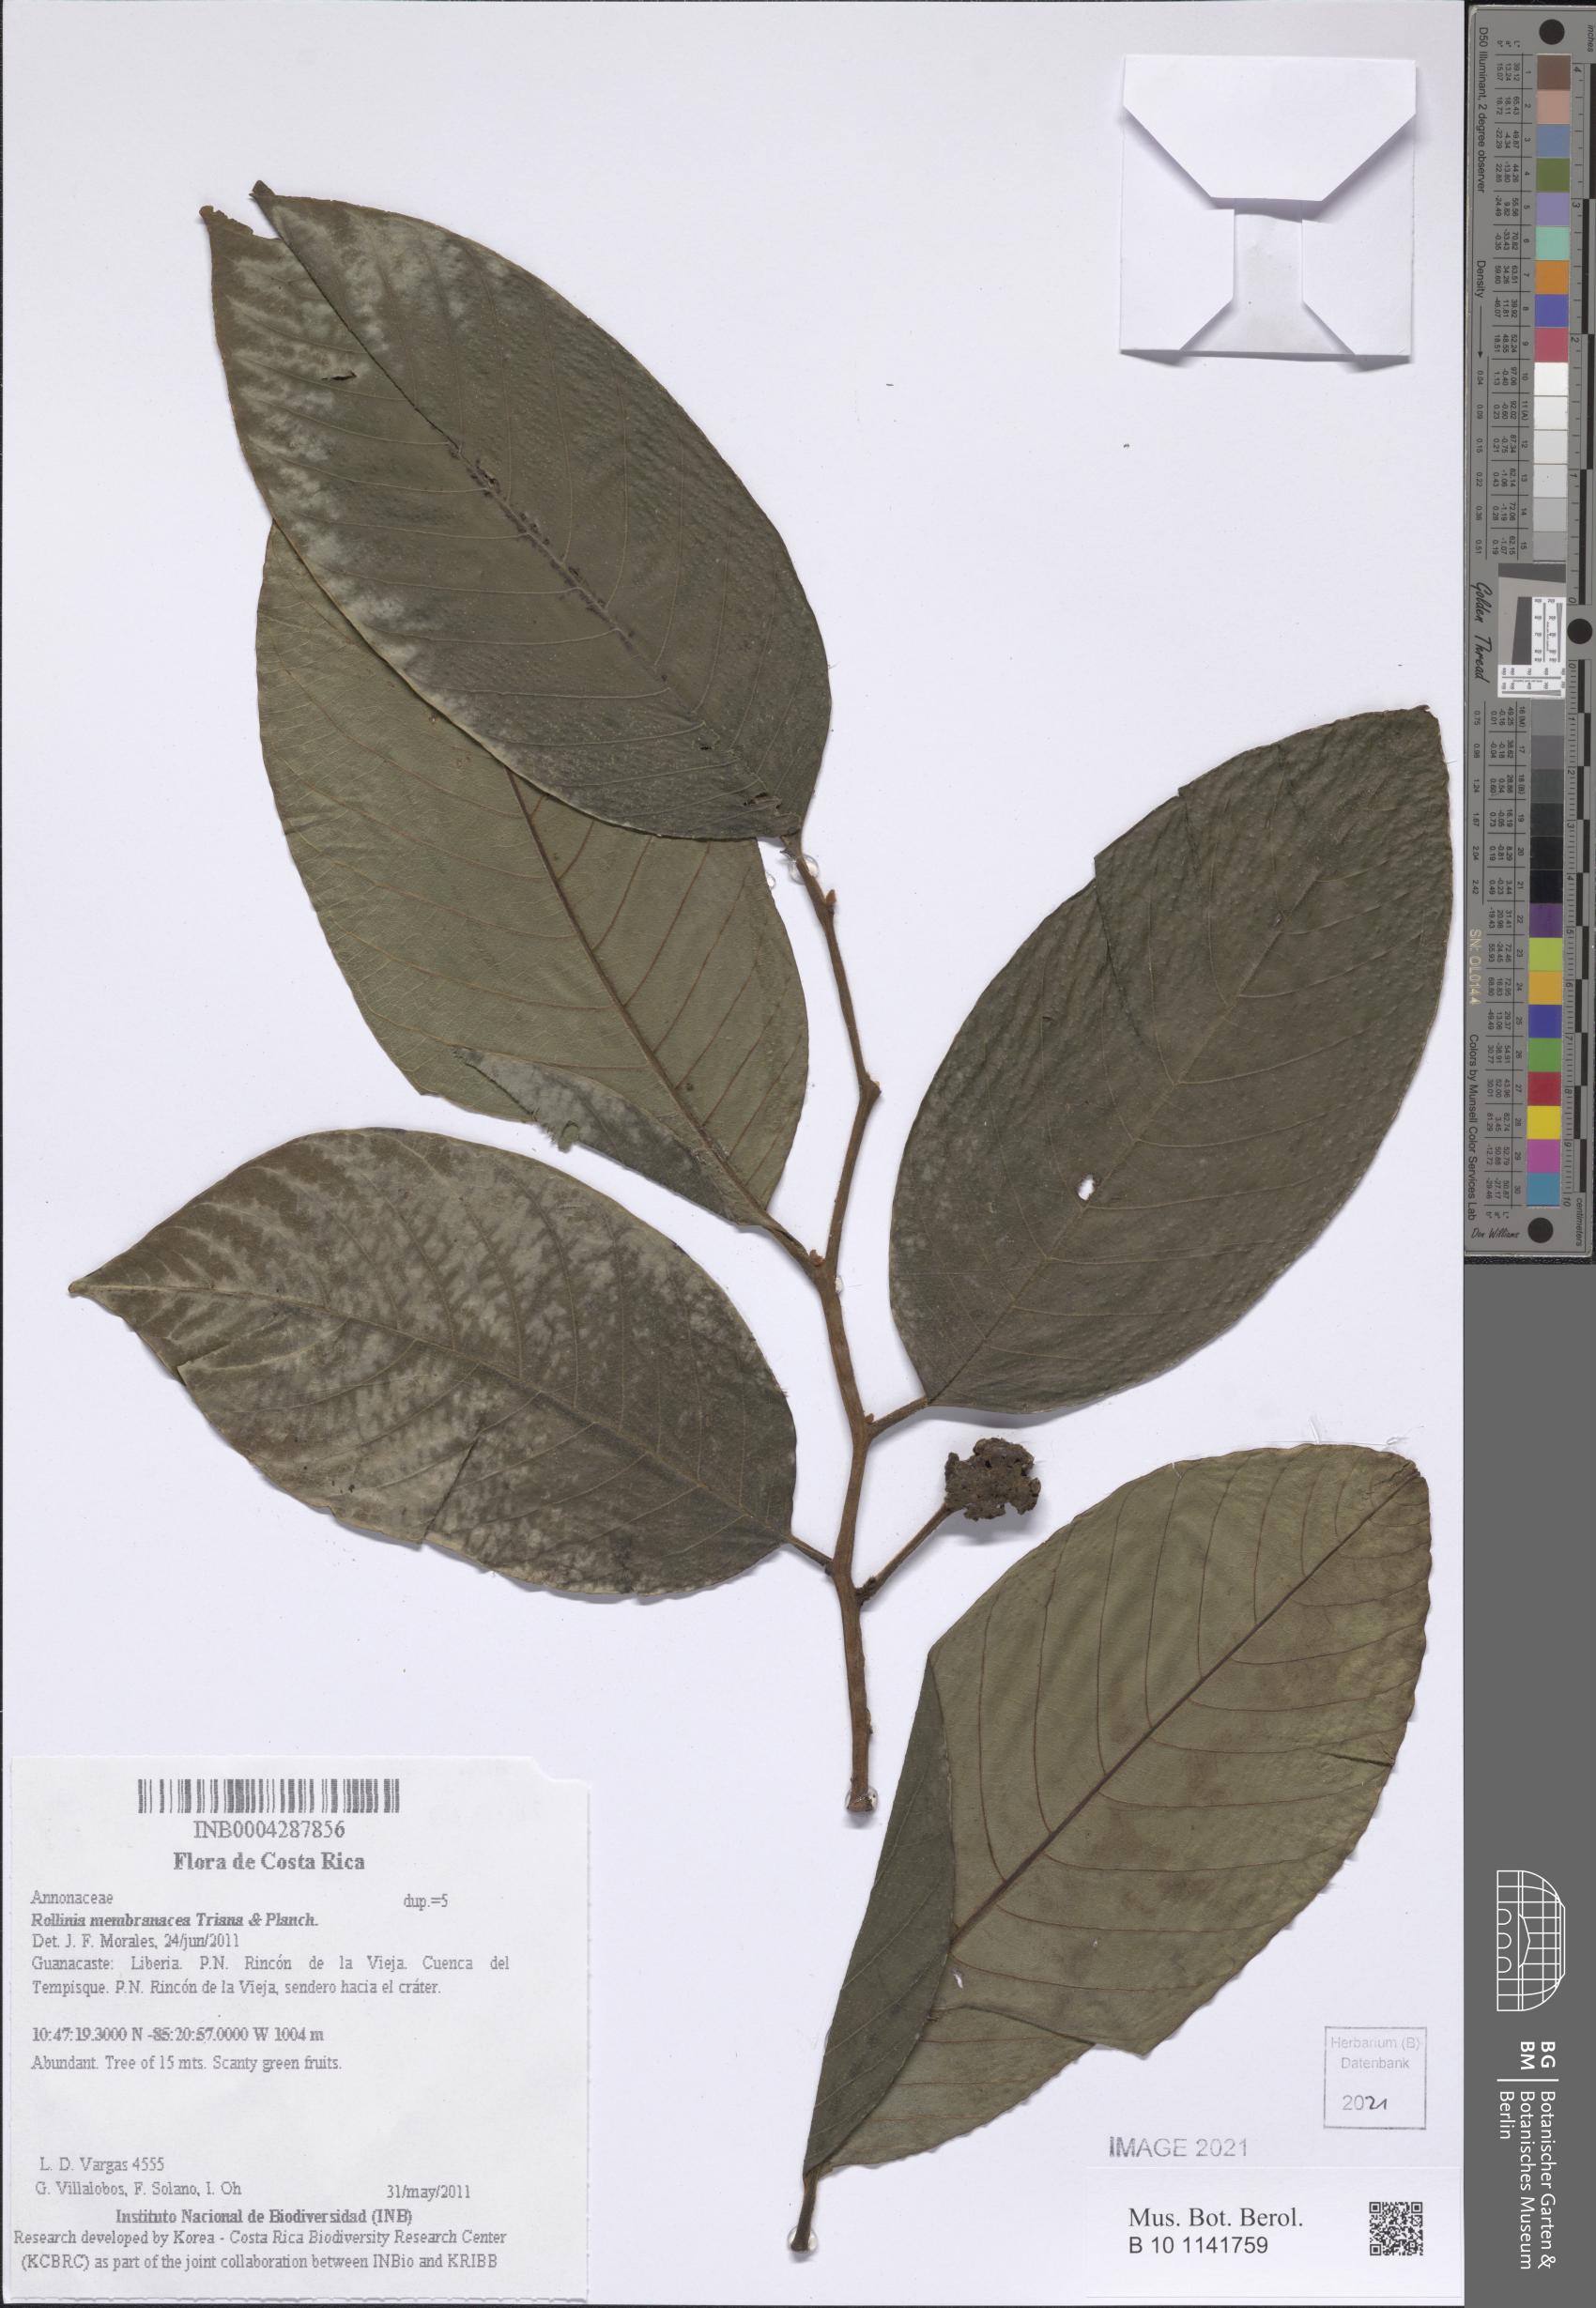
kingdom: Plantae
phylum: Tracheophyta
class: Magnoliopsida
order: Magnoliales
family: Annonaceae
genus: Annona
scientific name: Annona rensoniana
